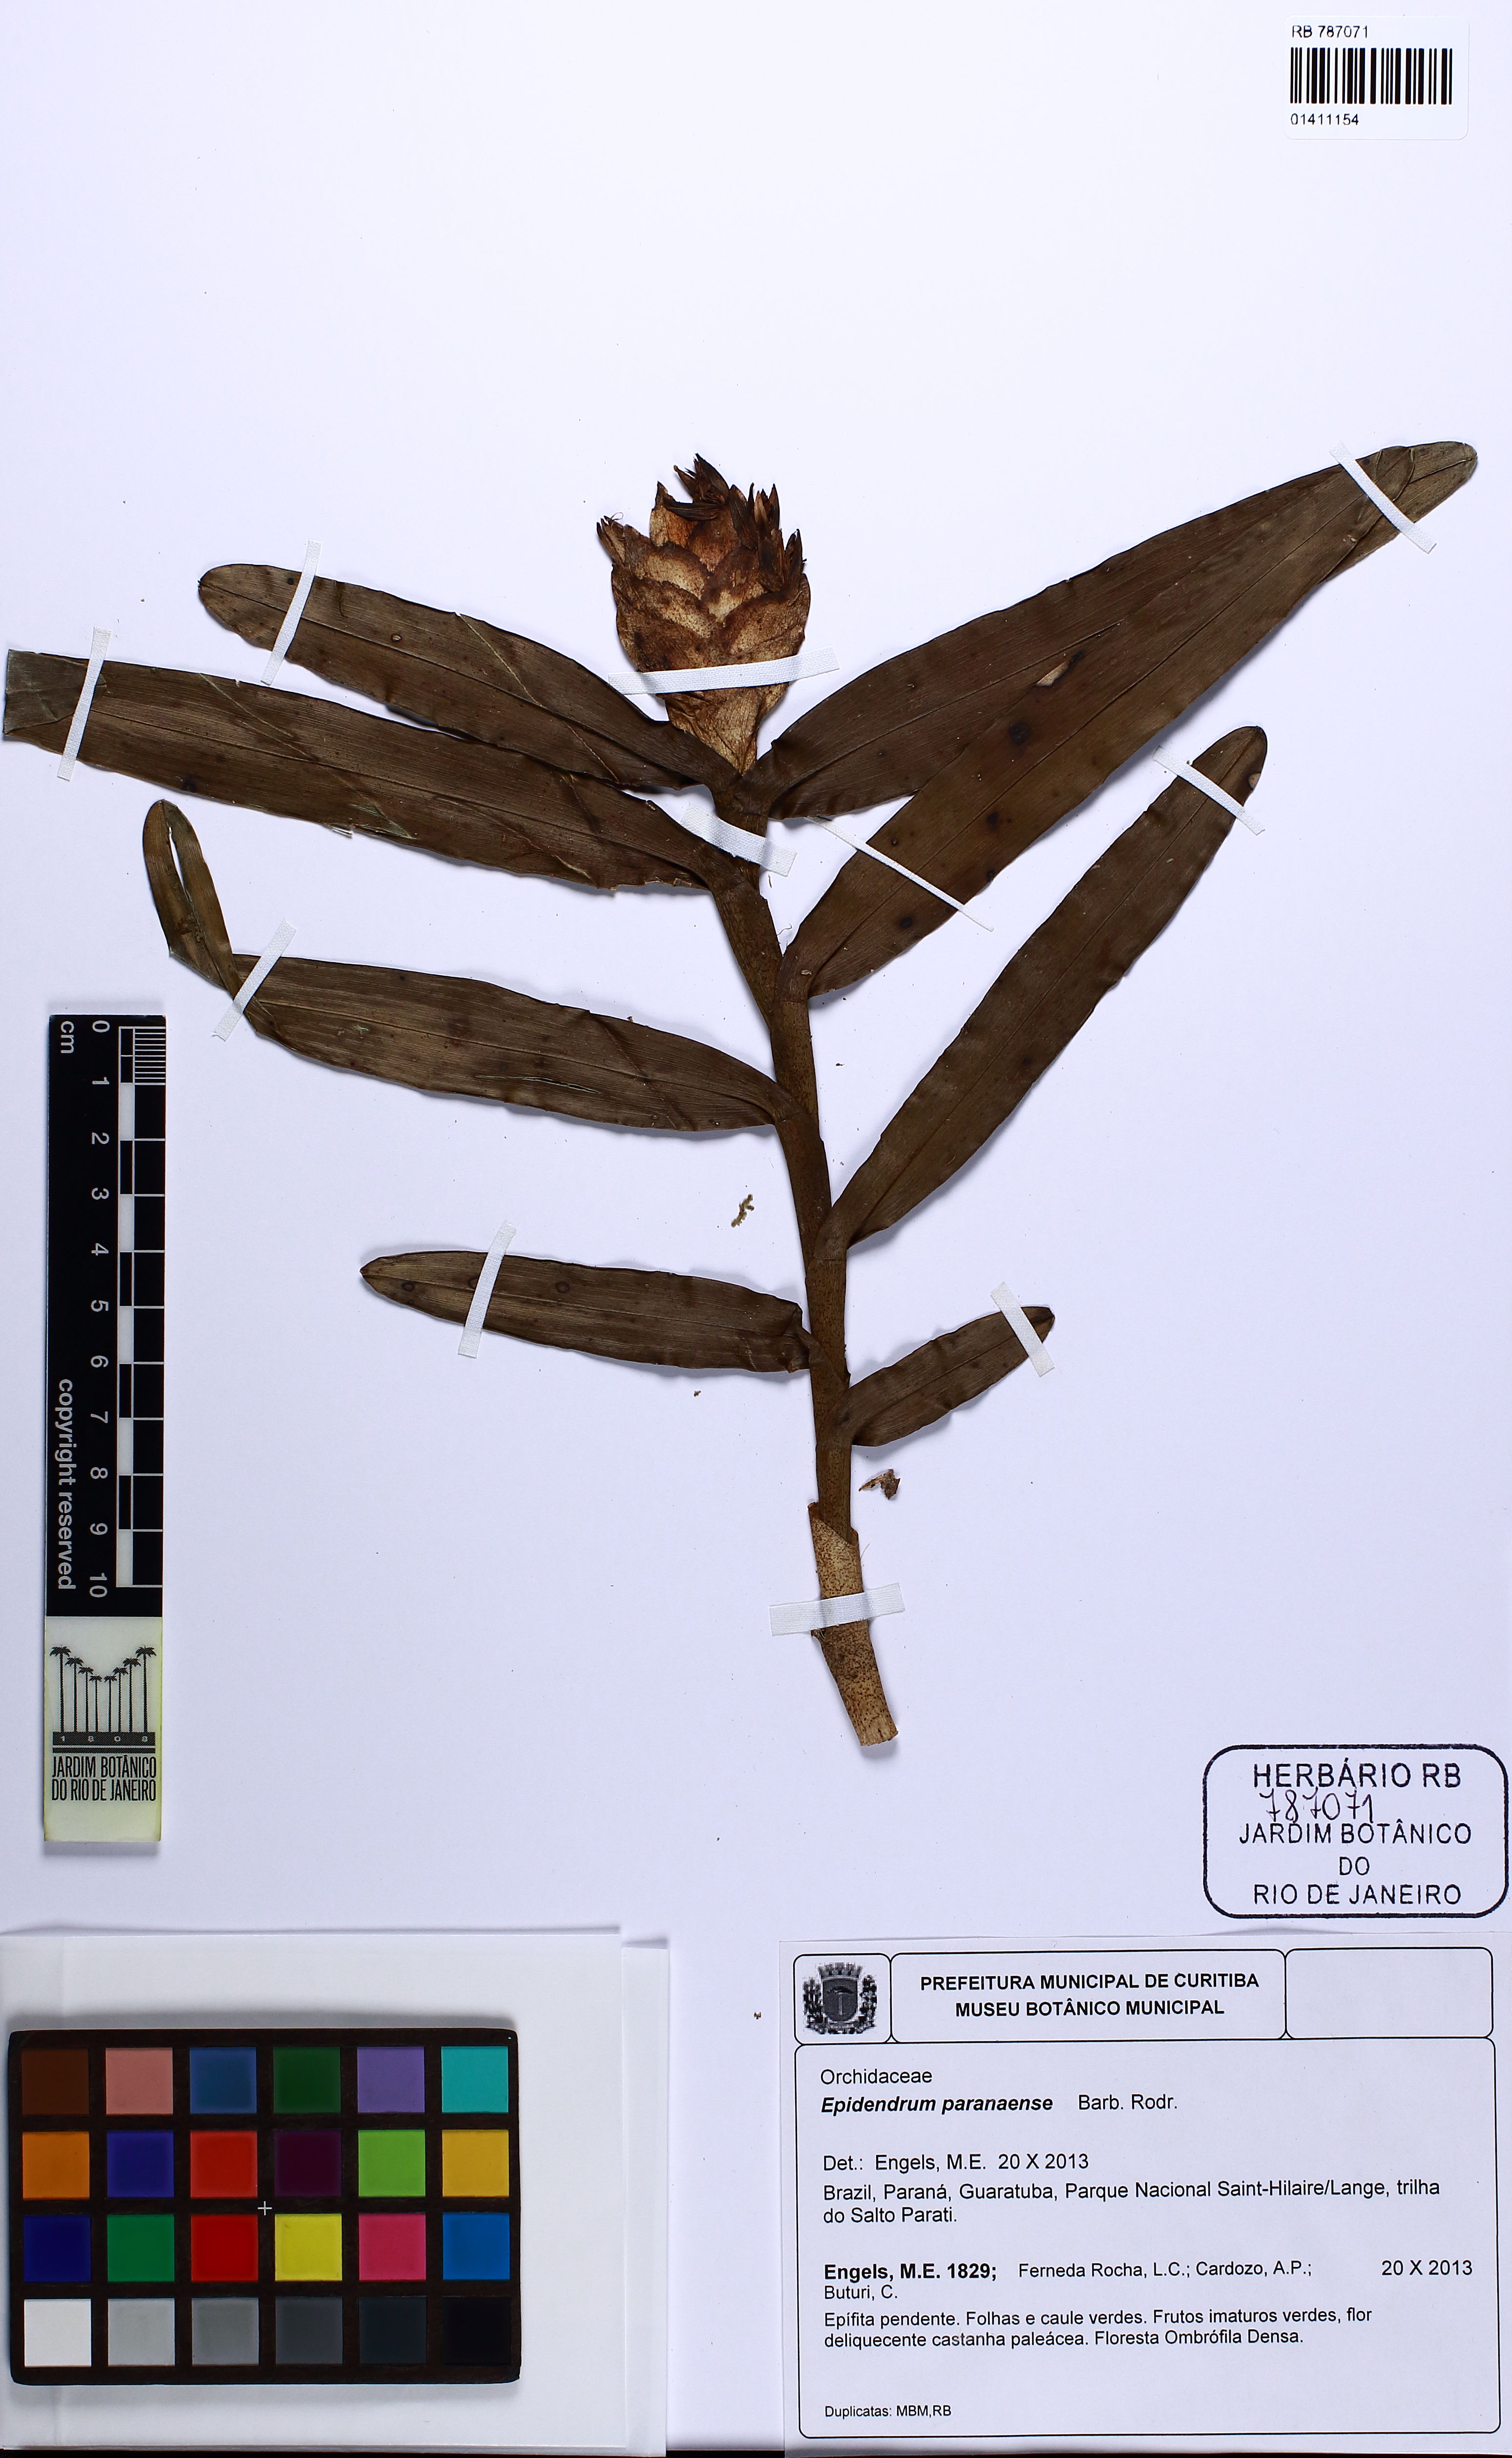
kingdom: Plantae
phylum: Tracheophyta
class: Liliopsida
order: Asparagales
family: Orchidaceae
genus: Epidendrum
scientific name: Epidendrum paranaense
